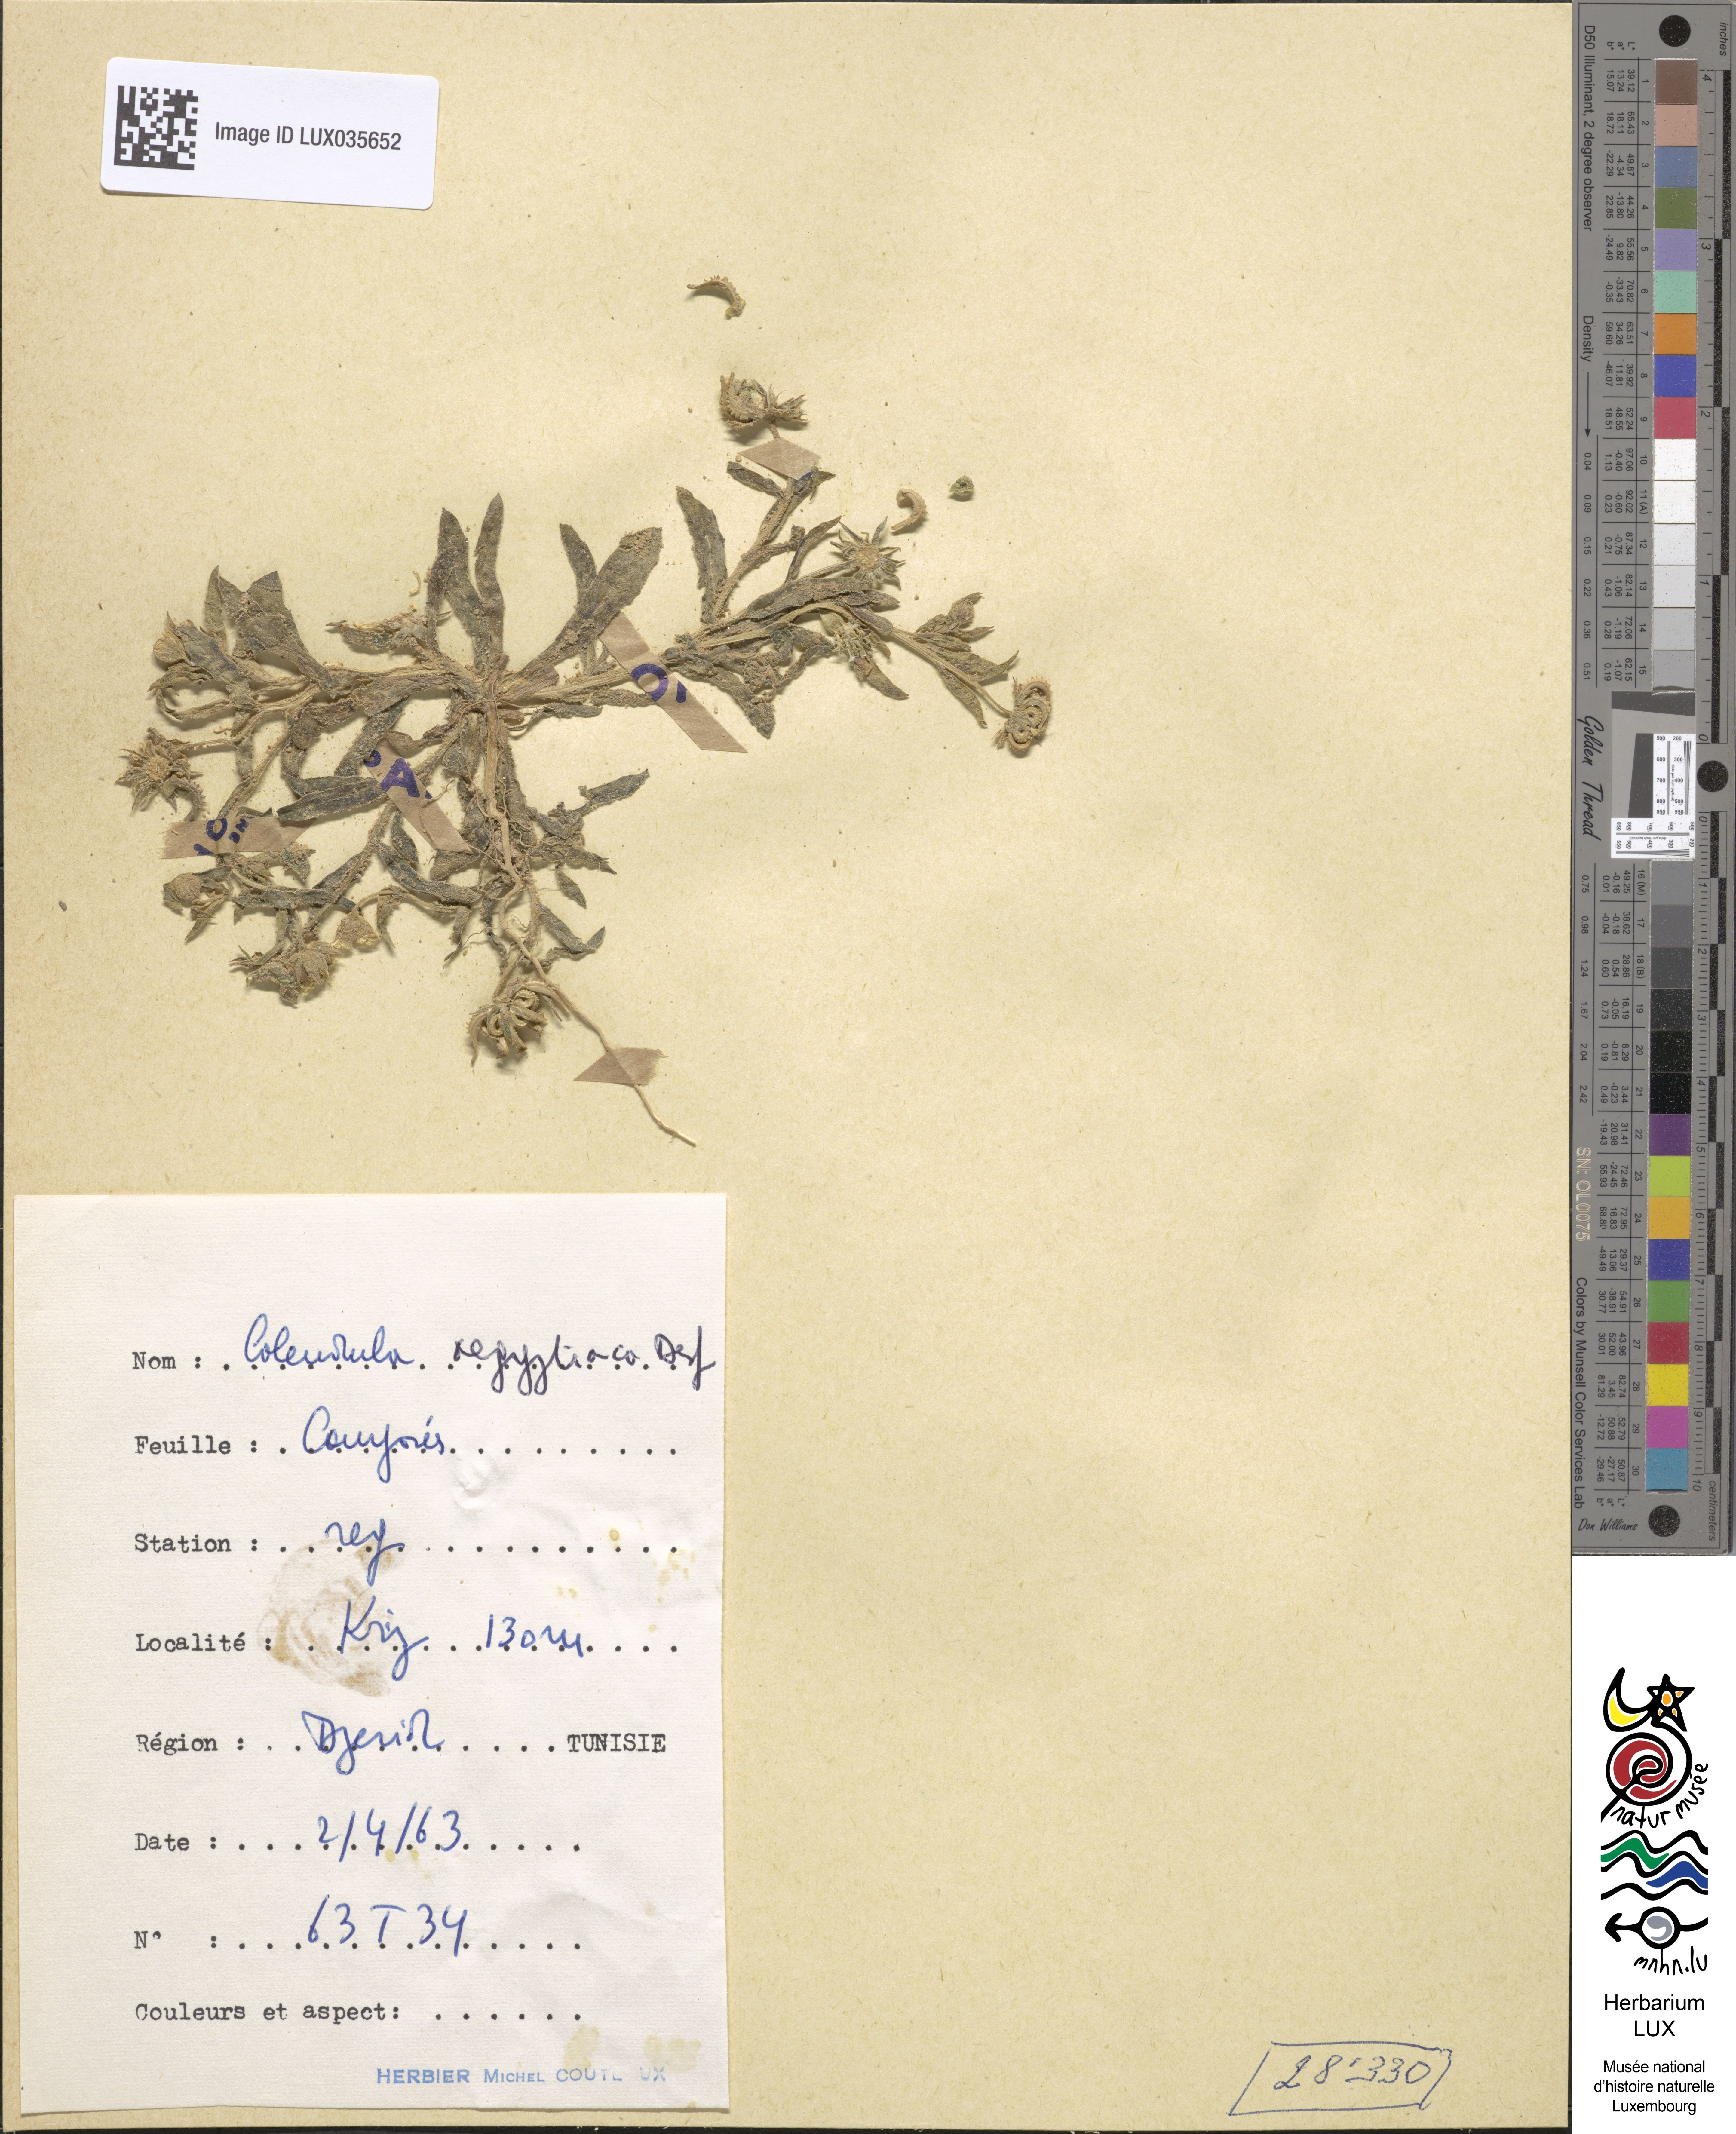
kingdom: Plantae
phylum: Tracheophyta
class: Magnoliopsida
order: Asterales
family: Asteraceae
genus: Calendula
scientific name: Calendula arvensis
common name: Field marigold
